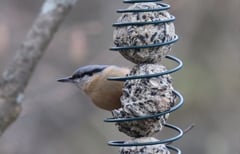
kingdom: Animalia
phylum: Chordata
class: Aves
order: Passeriformes
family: Sittidae
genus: Sitta
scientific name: Sitta europaea
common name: Eurasian nuthatch
